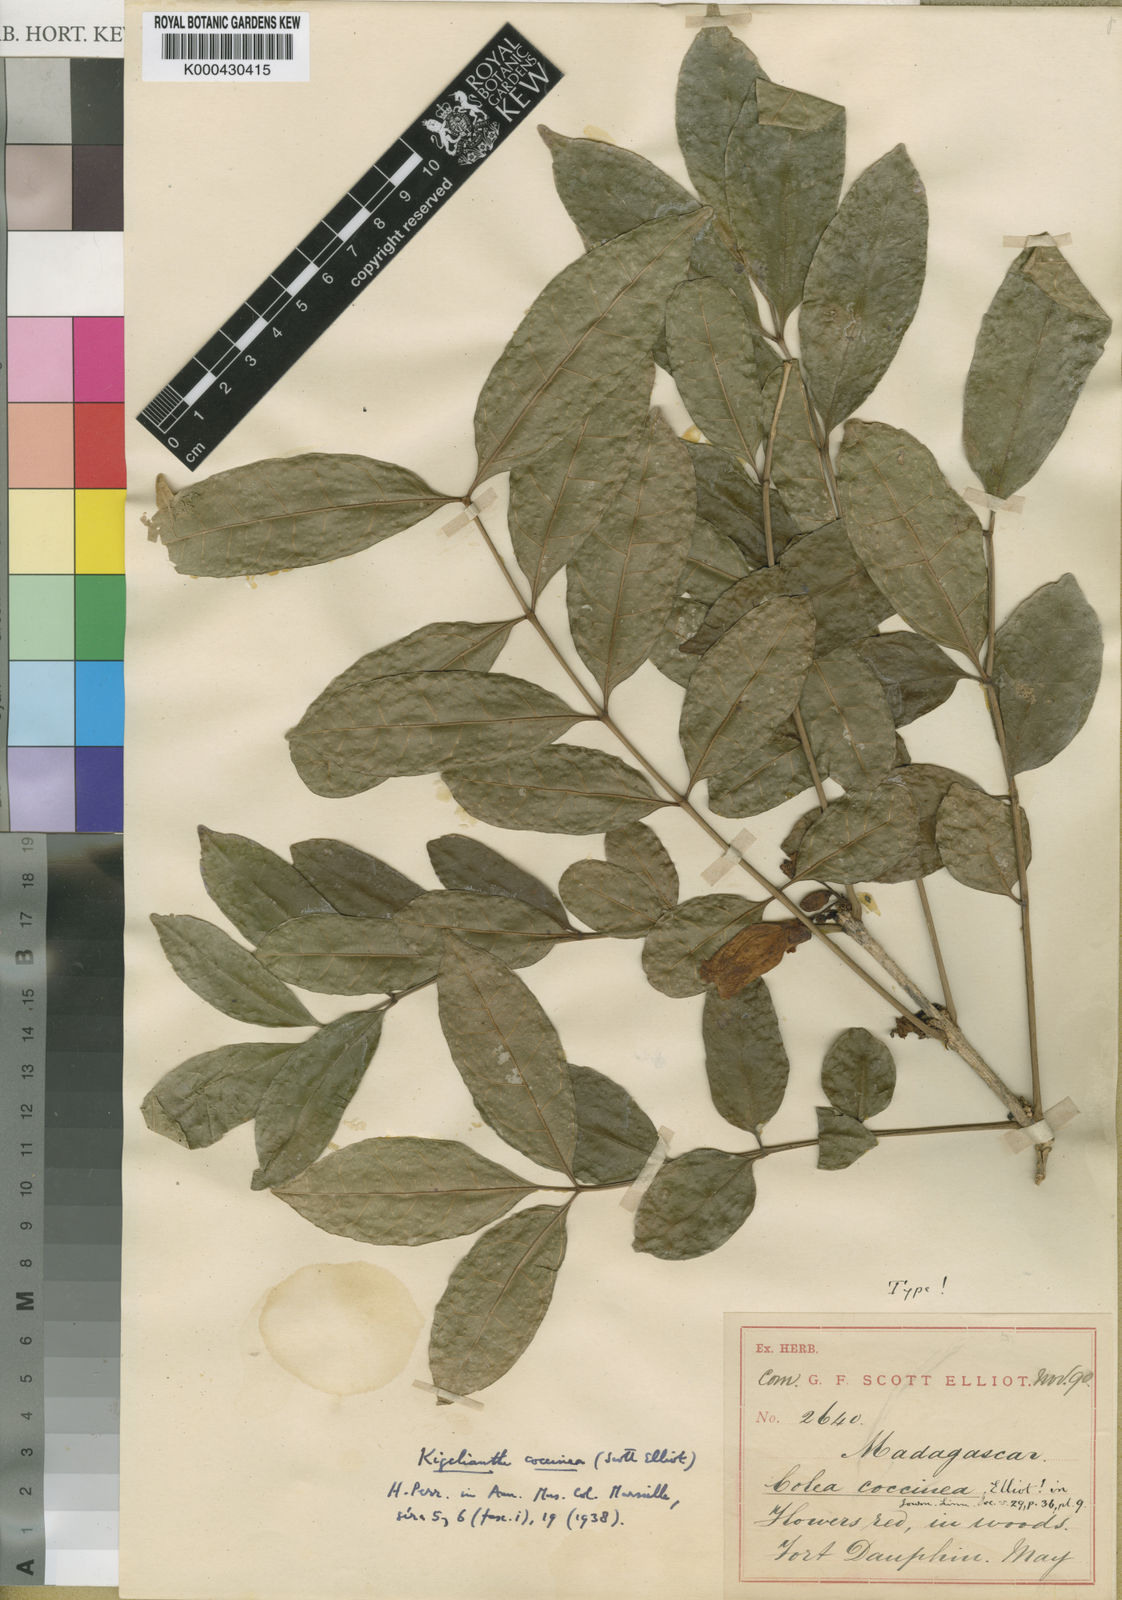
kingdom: Plantae
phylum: Tracheophyta
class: Magnoliopsida
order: Lamiales
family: Bignoniaceae
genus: Fernandoa
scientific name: Fernandoa coccinea
